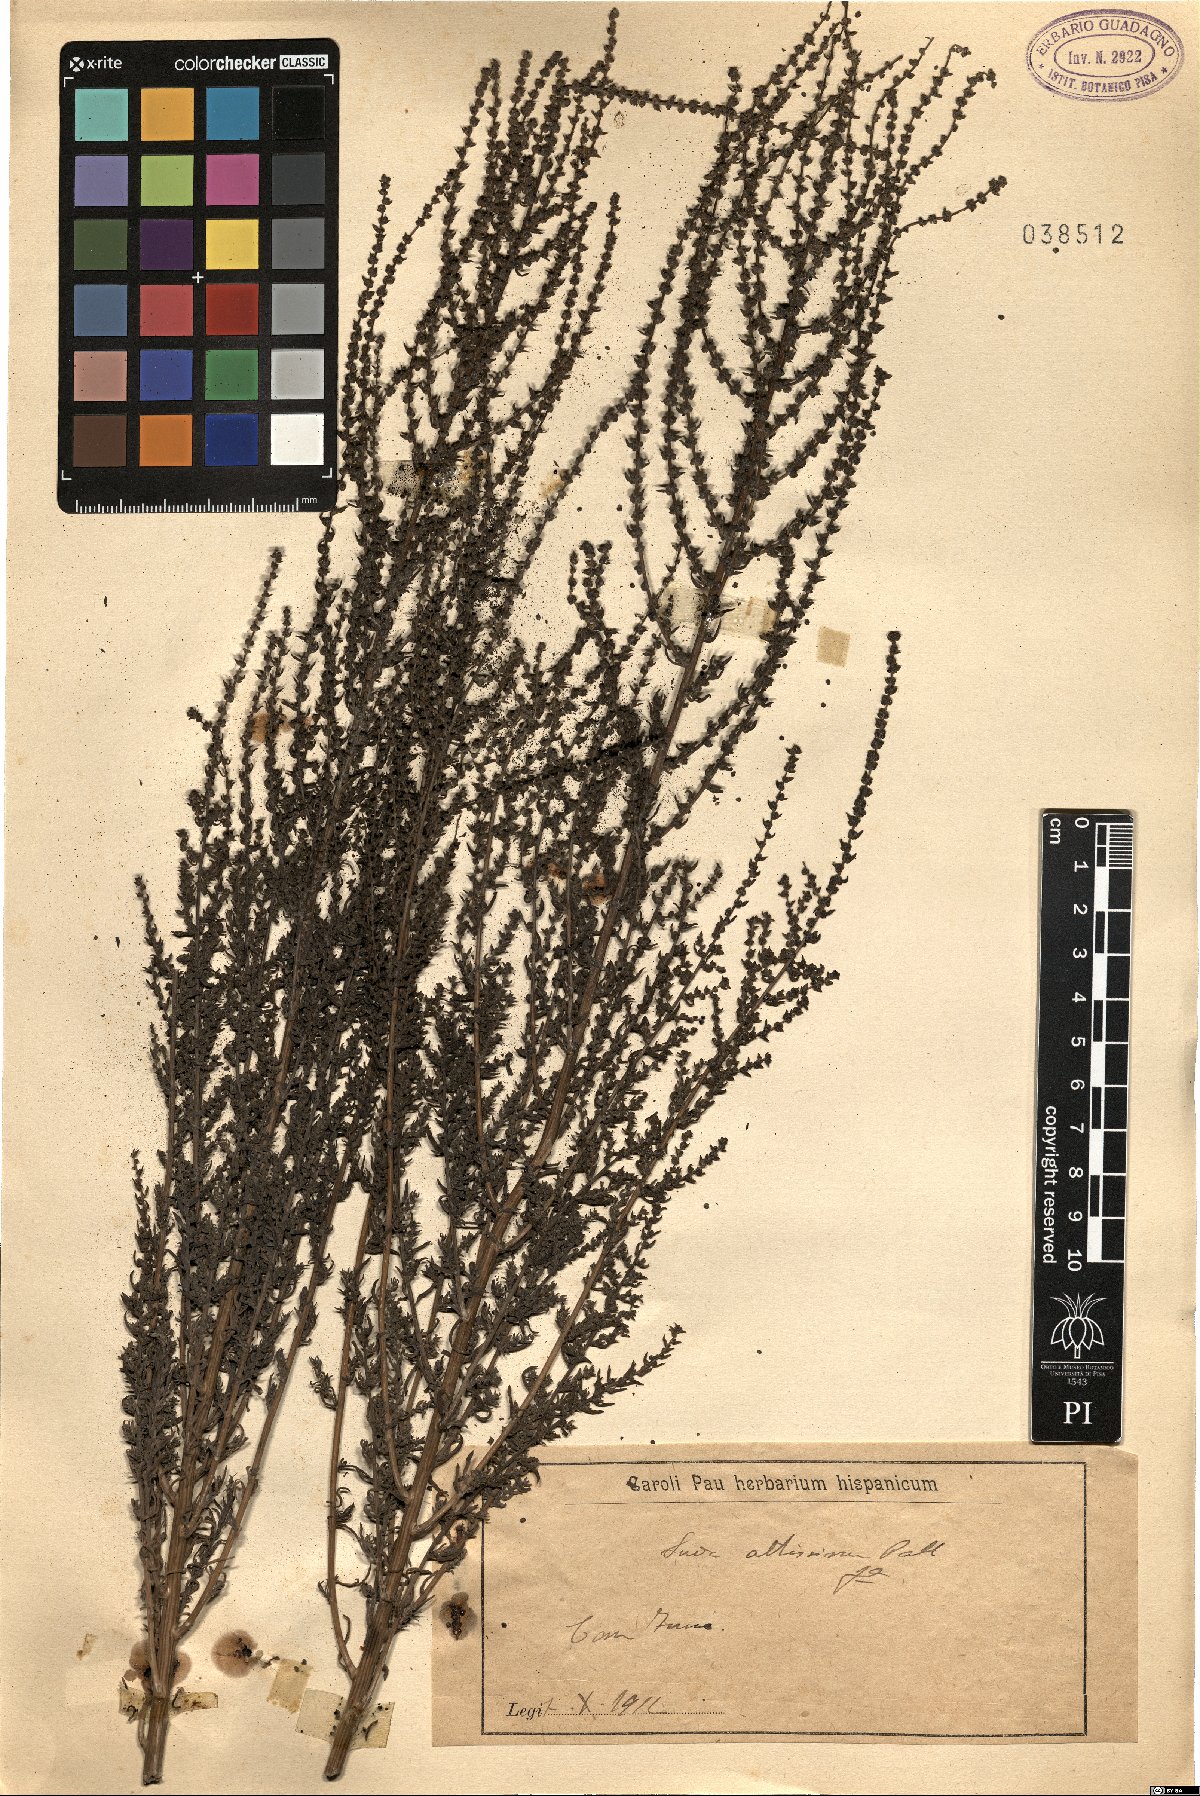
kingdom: Plantae
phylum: Tracheophyta
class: Magnoliopsida
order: Asterales
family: Asteraceae
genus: Xanthium
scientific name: Xanthium orientale
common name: Californian burr
